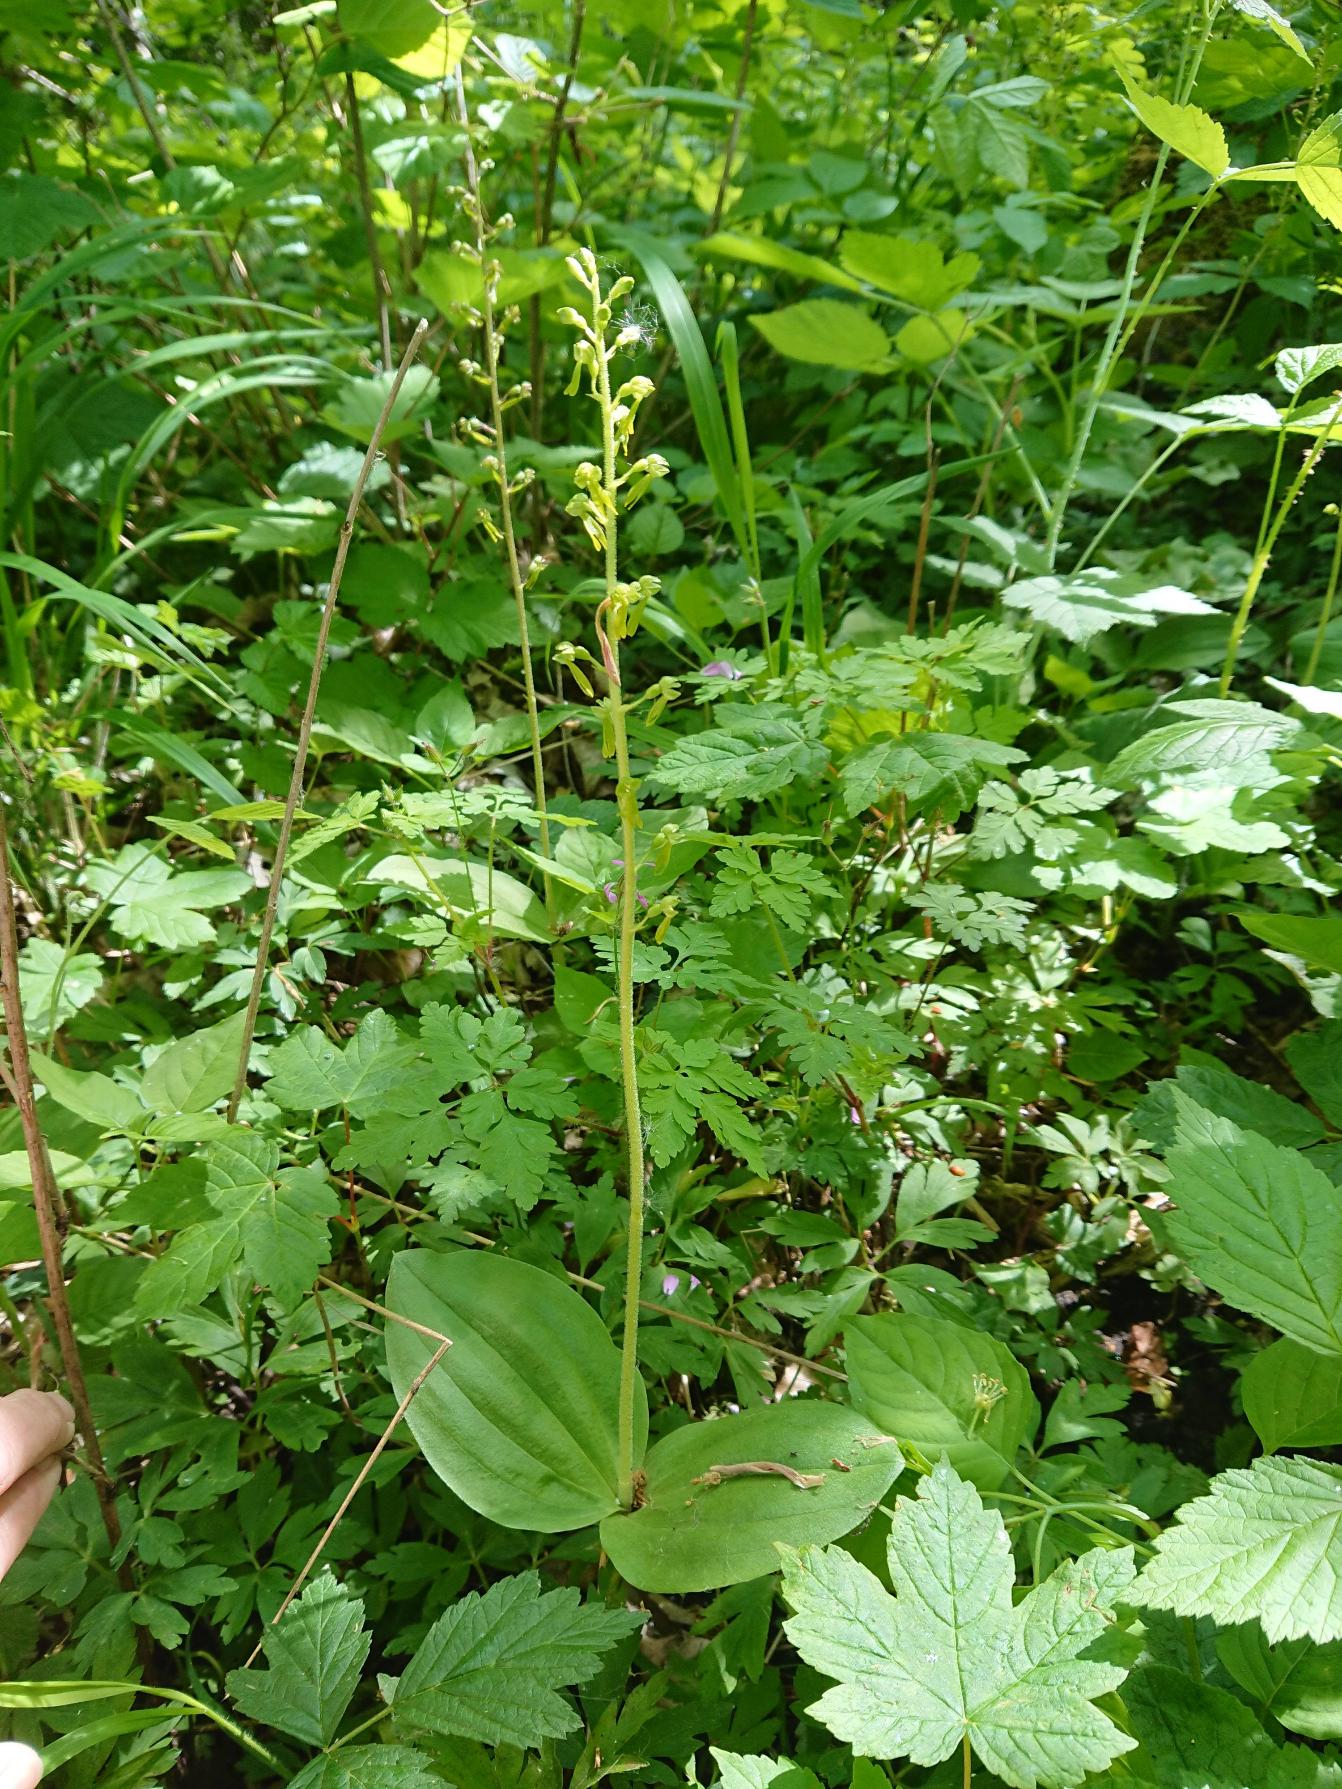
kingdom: Plantae
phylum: Tracheophyta
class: Liliopsida
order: Asparagales
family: Orchidaceae
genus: Neottia
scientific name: Neottia ovata
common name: Ægbladet fliglæbe
